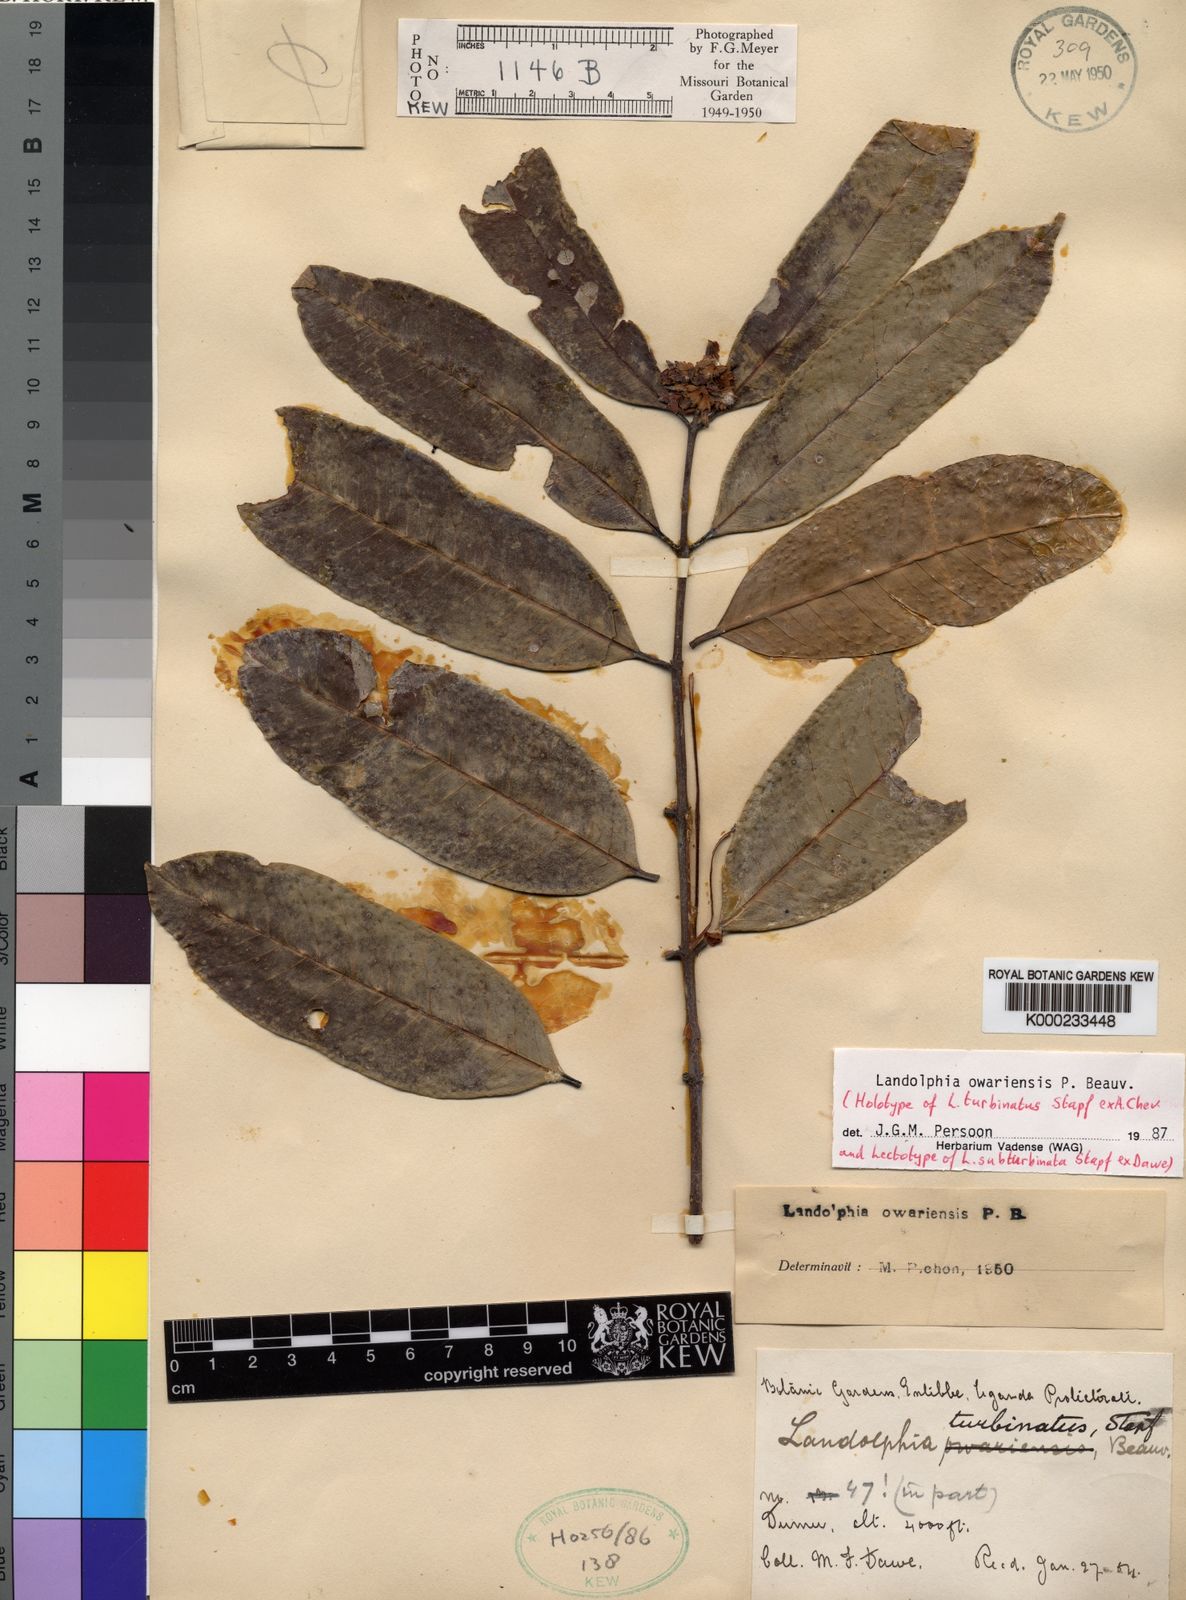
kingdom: Plantae
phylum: Tracheophyta
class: Magnoliopsida
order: Gentianales
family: Apocynaceae
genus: Landolphia
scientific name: Landolphia owariensis
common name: White-ball-rubber
